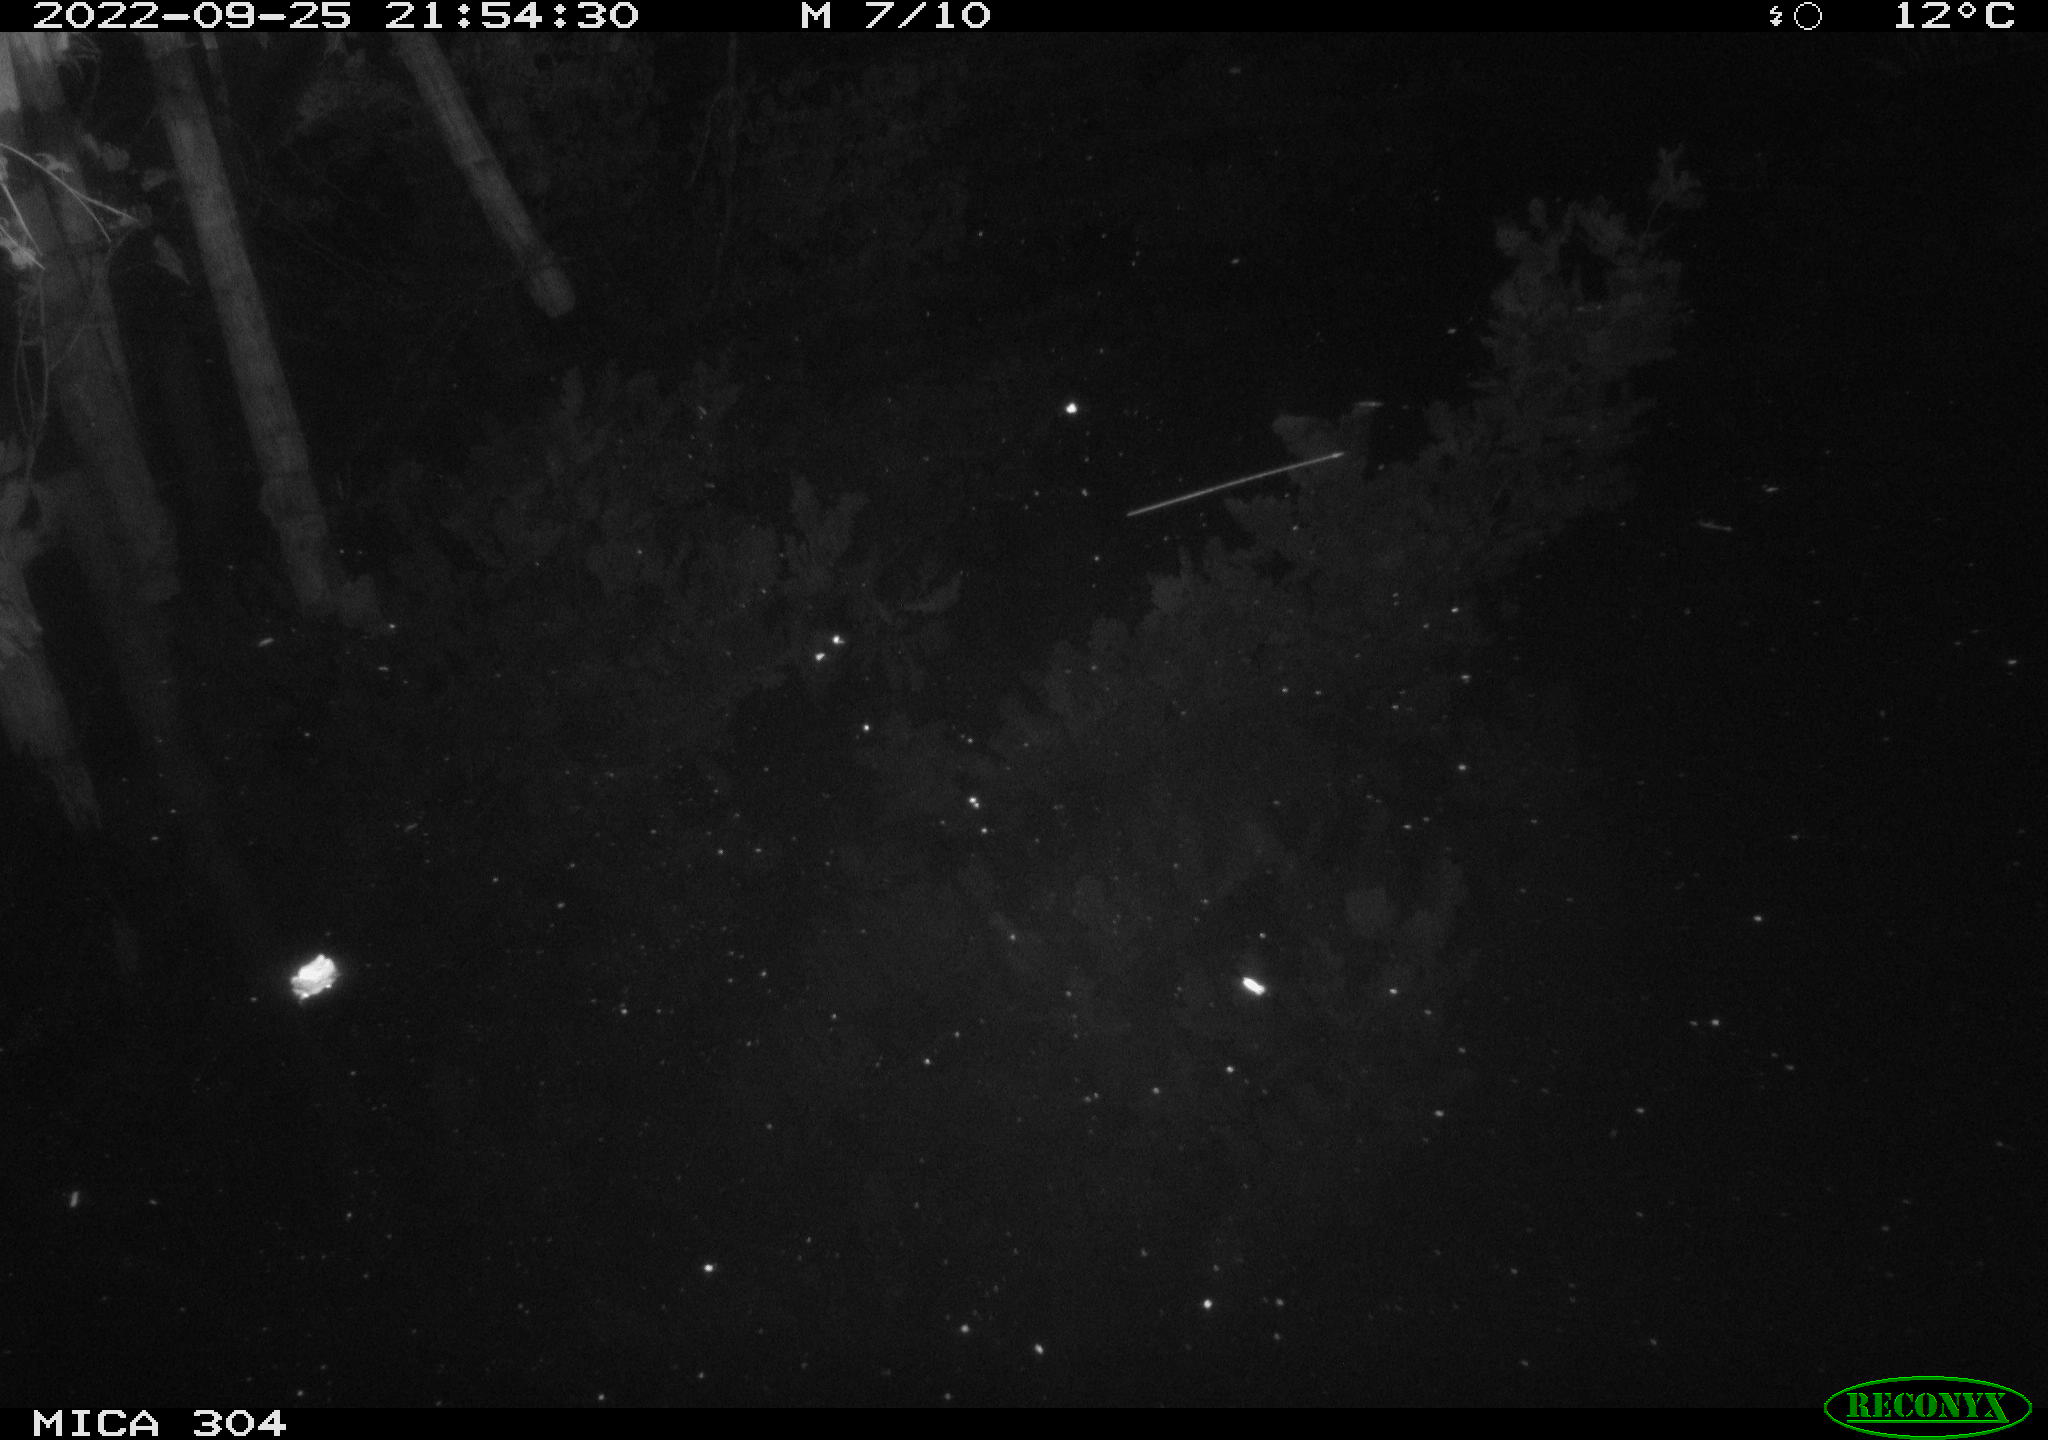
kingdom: Animalia
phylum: Chordata
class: Aves
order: Gruiformes
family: Rallidae
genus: Gallinula
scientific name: Gallinula chloropus
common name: Common moorhen
